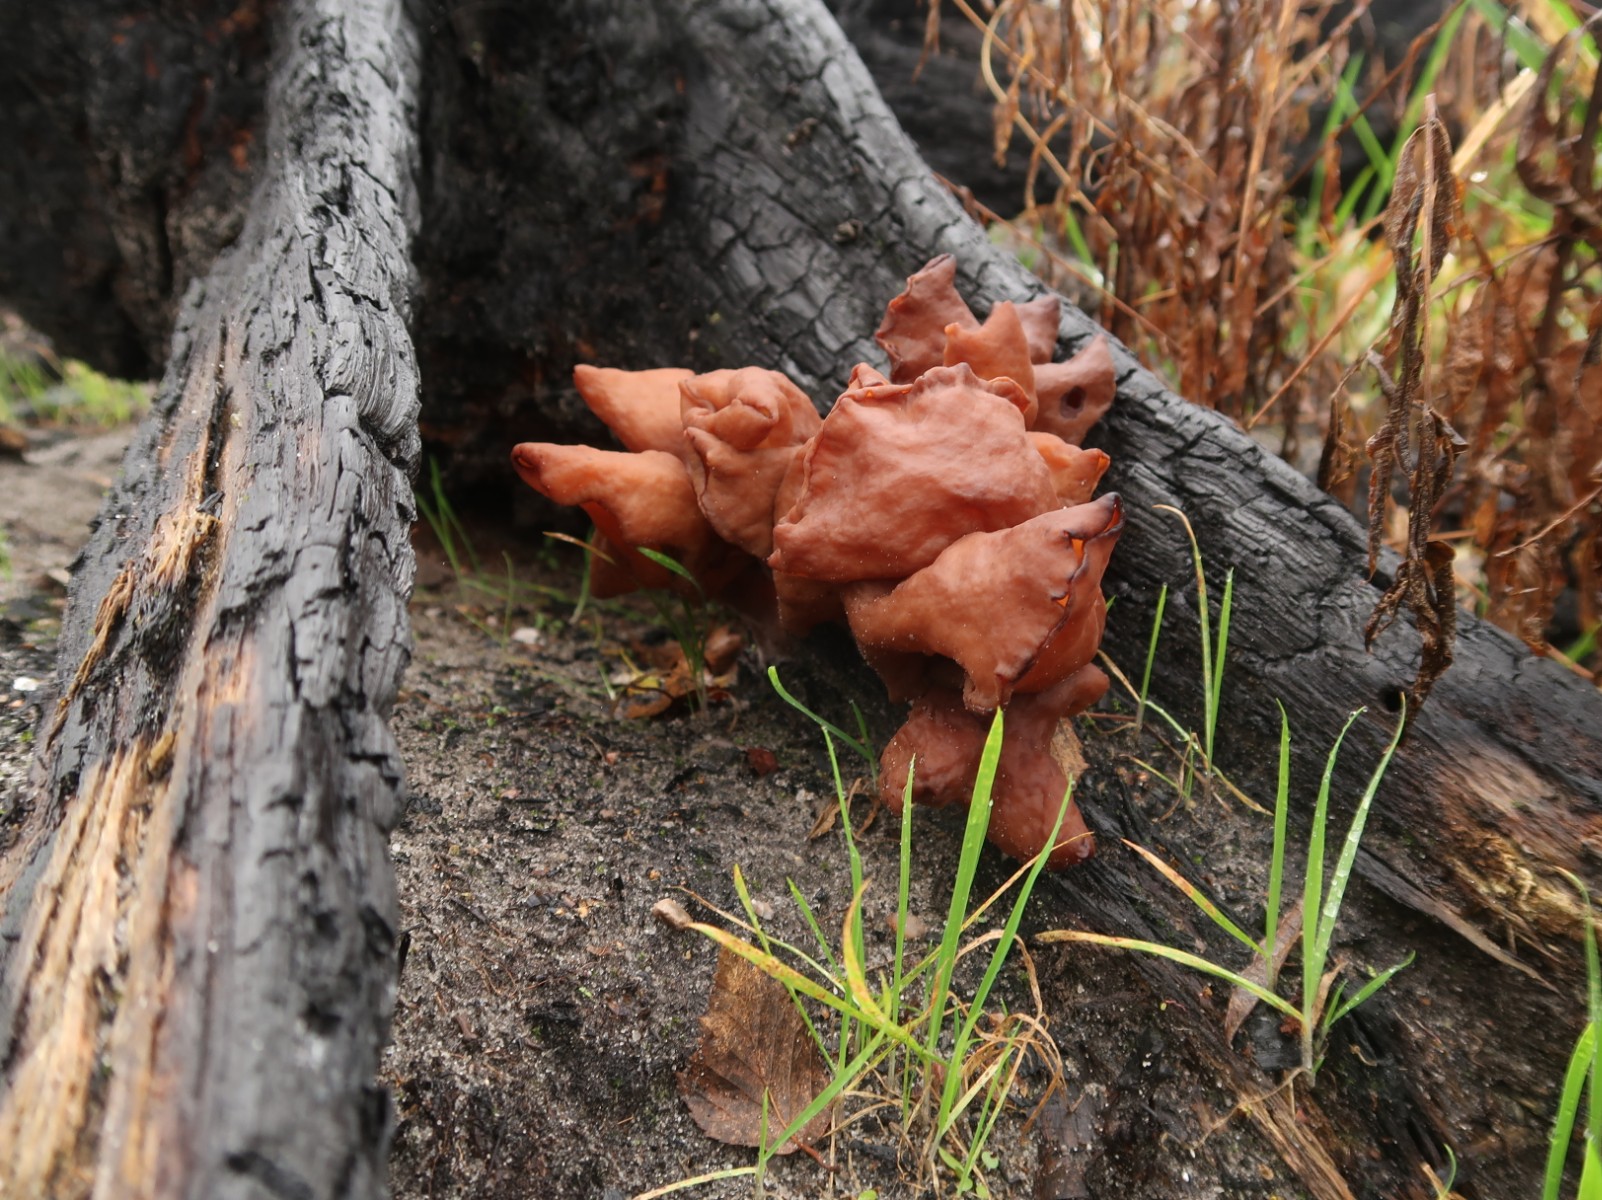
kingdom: Fungi
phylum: Ascomycota
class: Pezizomycetes
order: Pezizales
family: Discinaceae
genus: Gyromitra
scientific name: Gyromitra infula
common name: bispehue-stenmorkel
